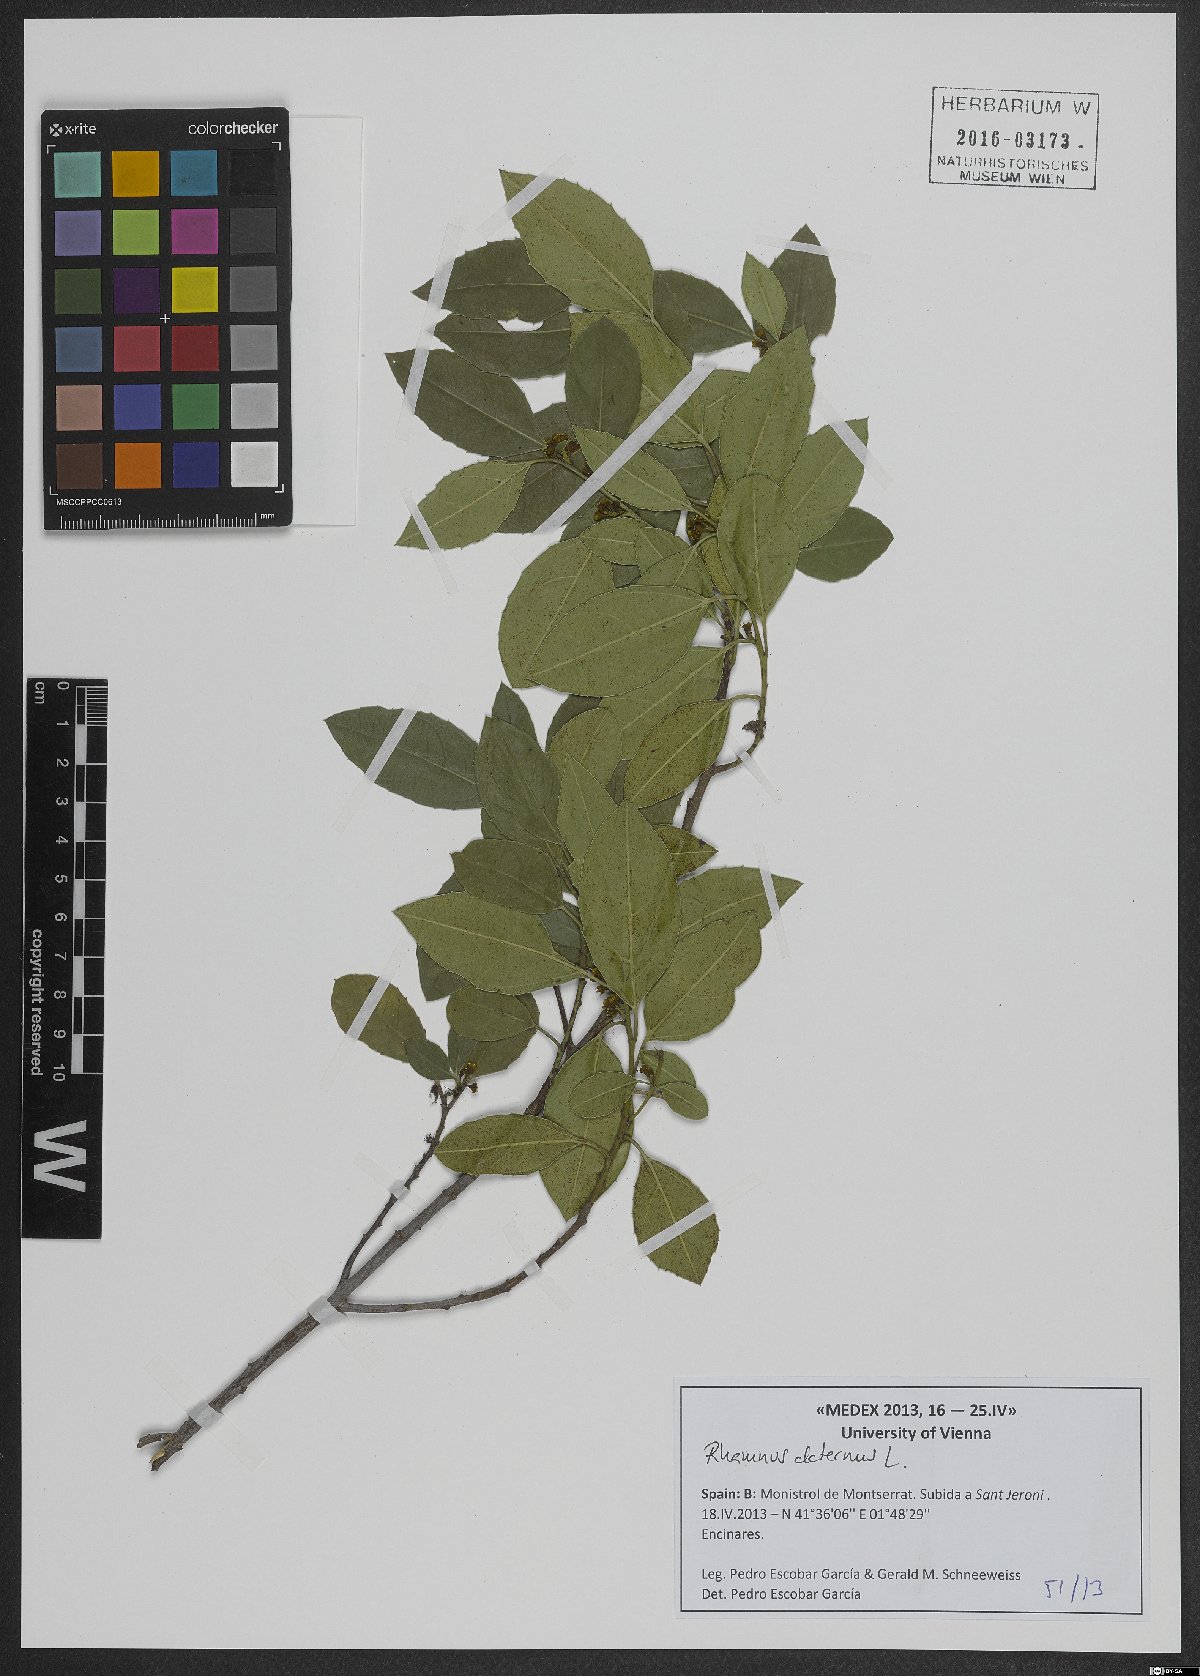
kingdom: Plantae
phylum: Tracheophyta
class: Magnoliopsida
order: Rosales
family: Rhamnaceae
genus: Rhamnus
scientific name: Rhamnus alaternus
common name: Mediterranean buckthorn
